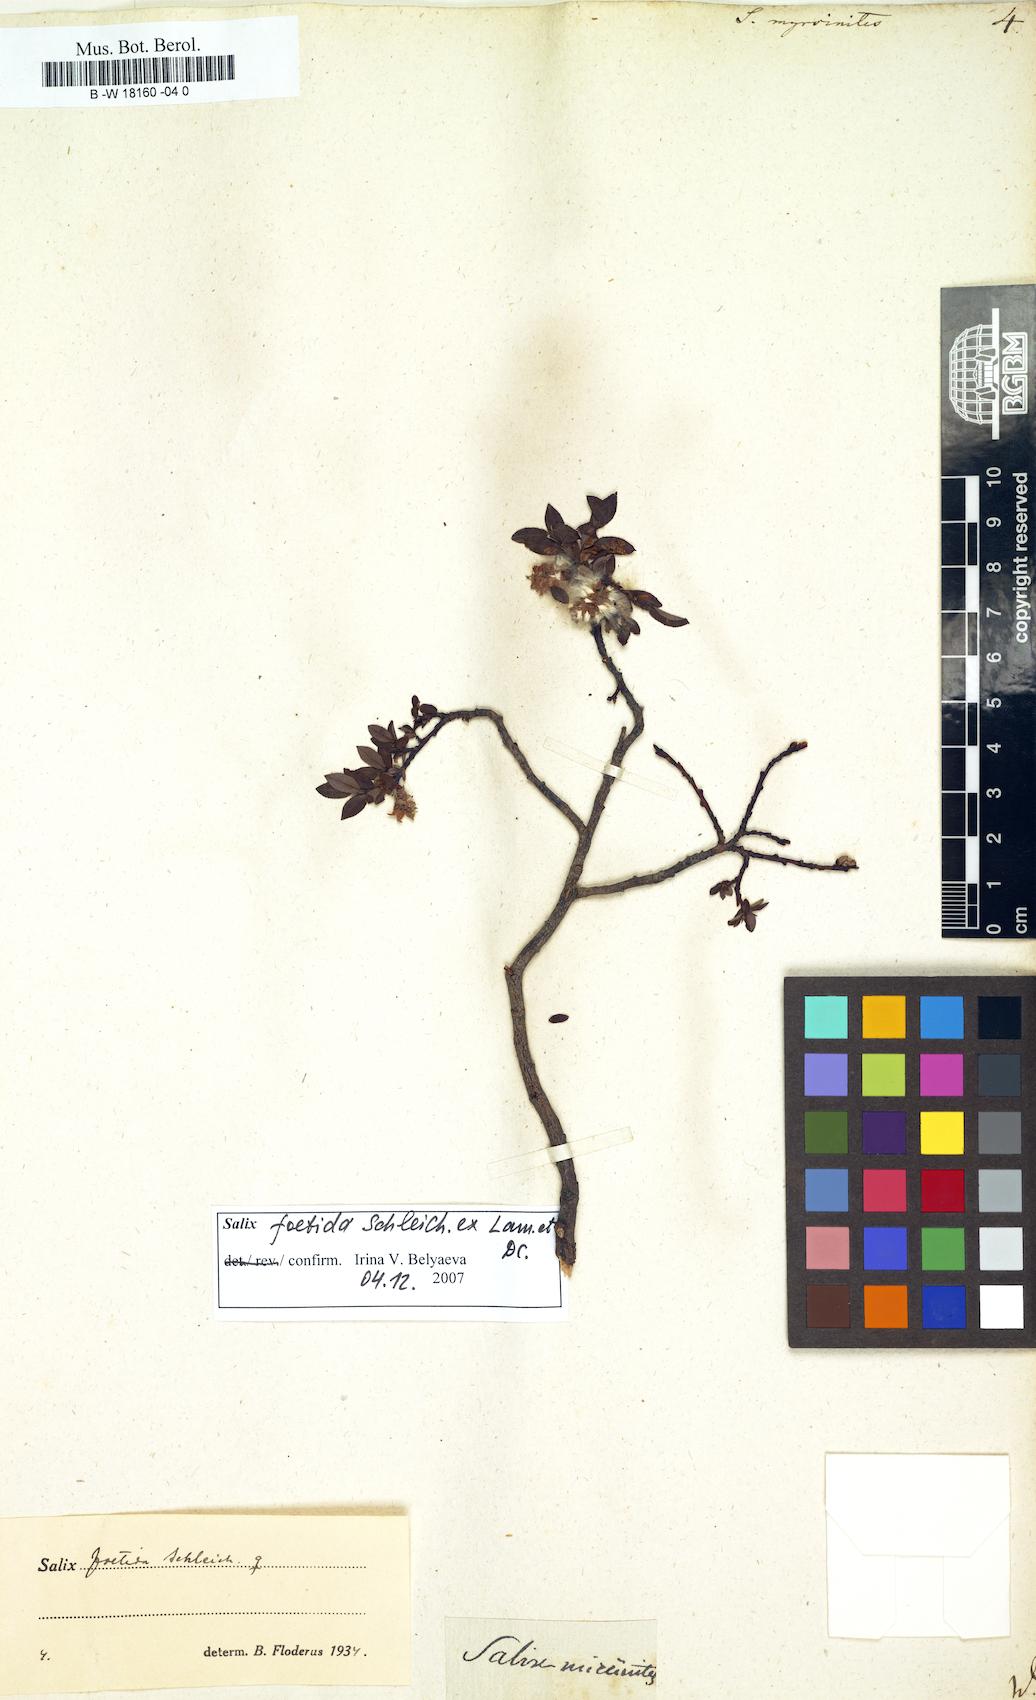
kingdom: Plantae
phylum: Tracheophyta
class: Magnoliopsida
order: Malpighiales
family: Salicaceae
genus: Salix
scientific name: Salix myrsinites
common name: Myrtle willow
